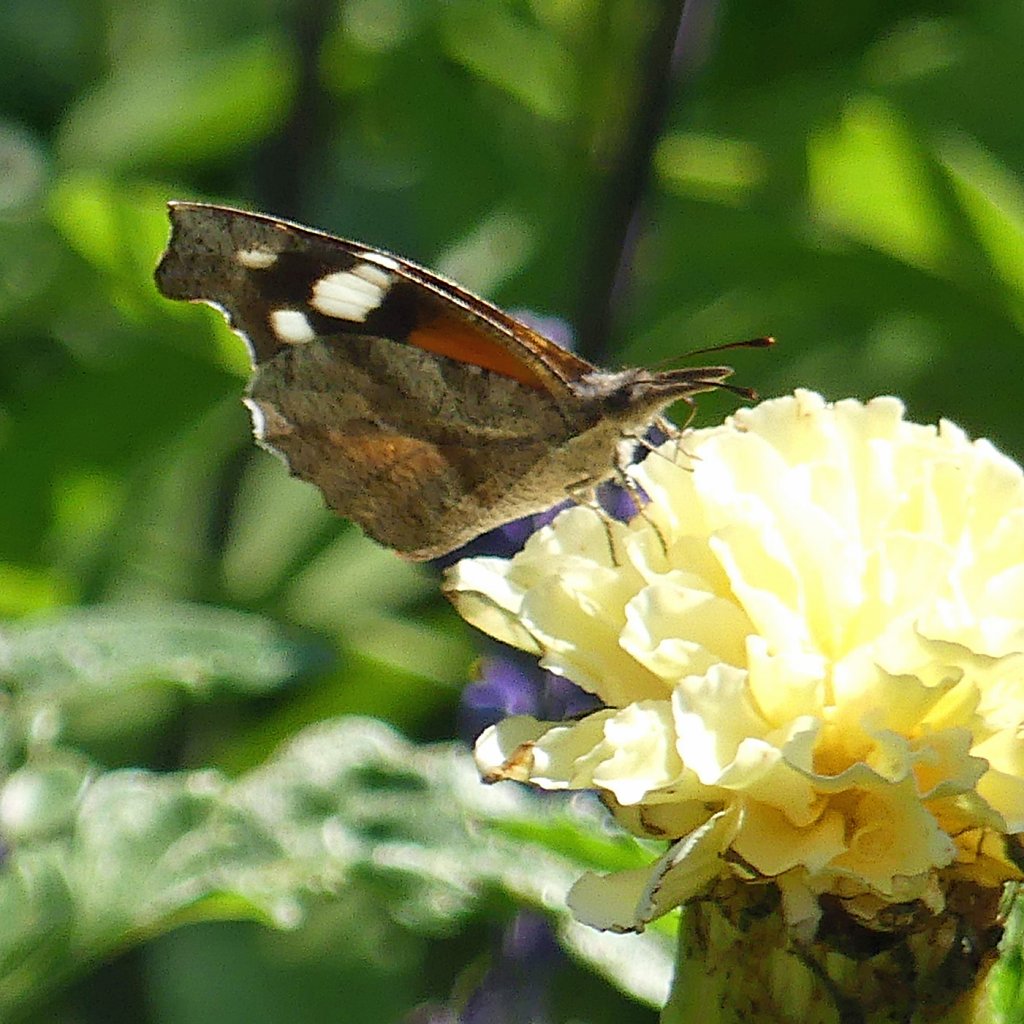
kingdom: Animalia
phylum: Arthropoda
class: Insecta
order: Lepidoptera
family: Nymphalidae
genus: Libytheana
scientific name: Libytheana carinenta
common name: American Snout
